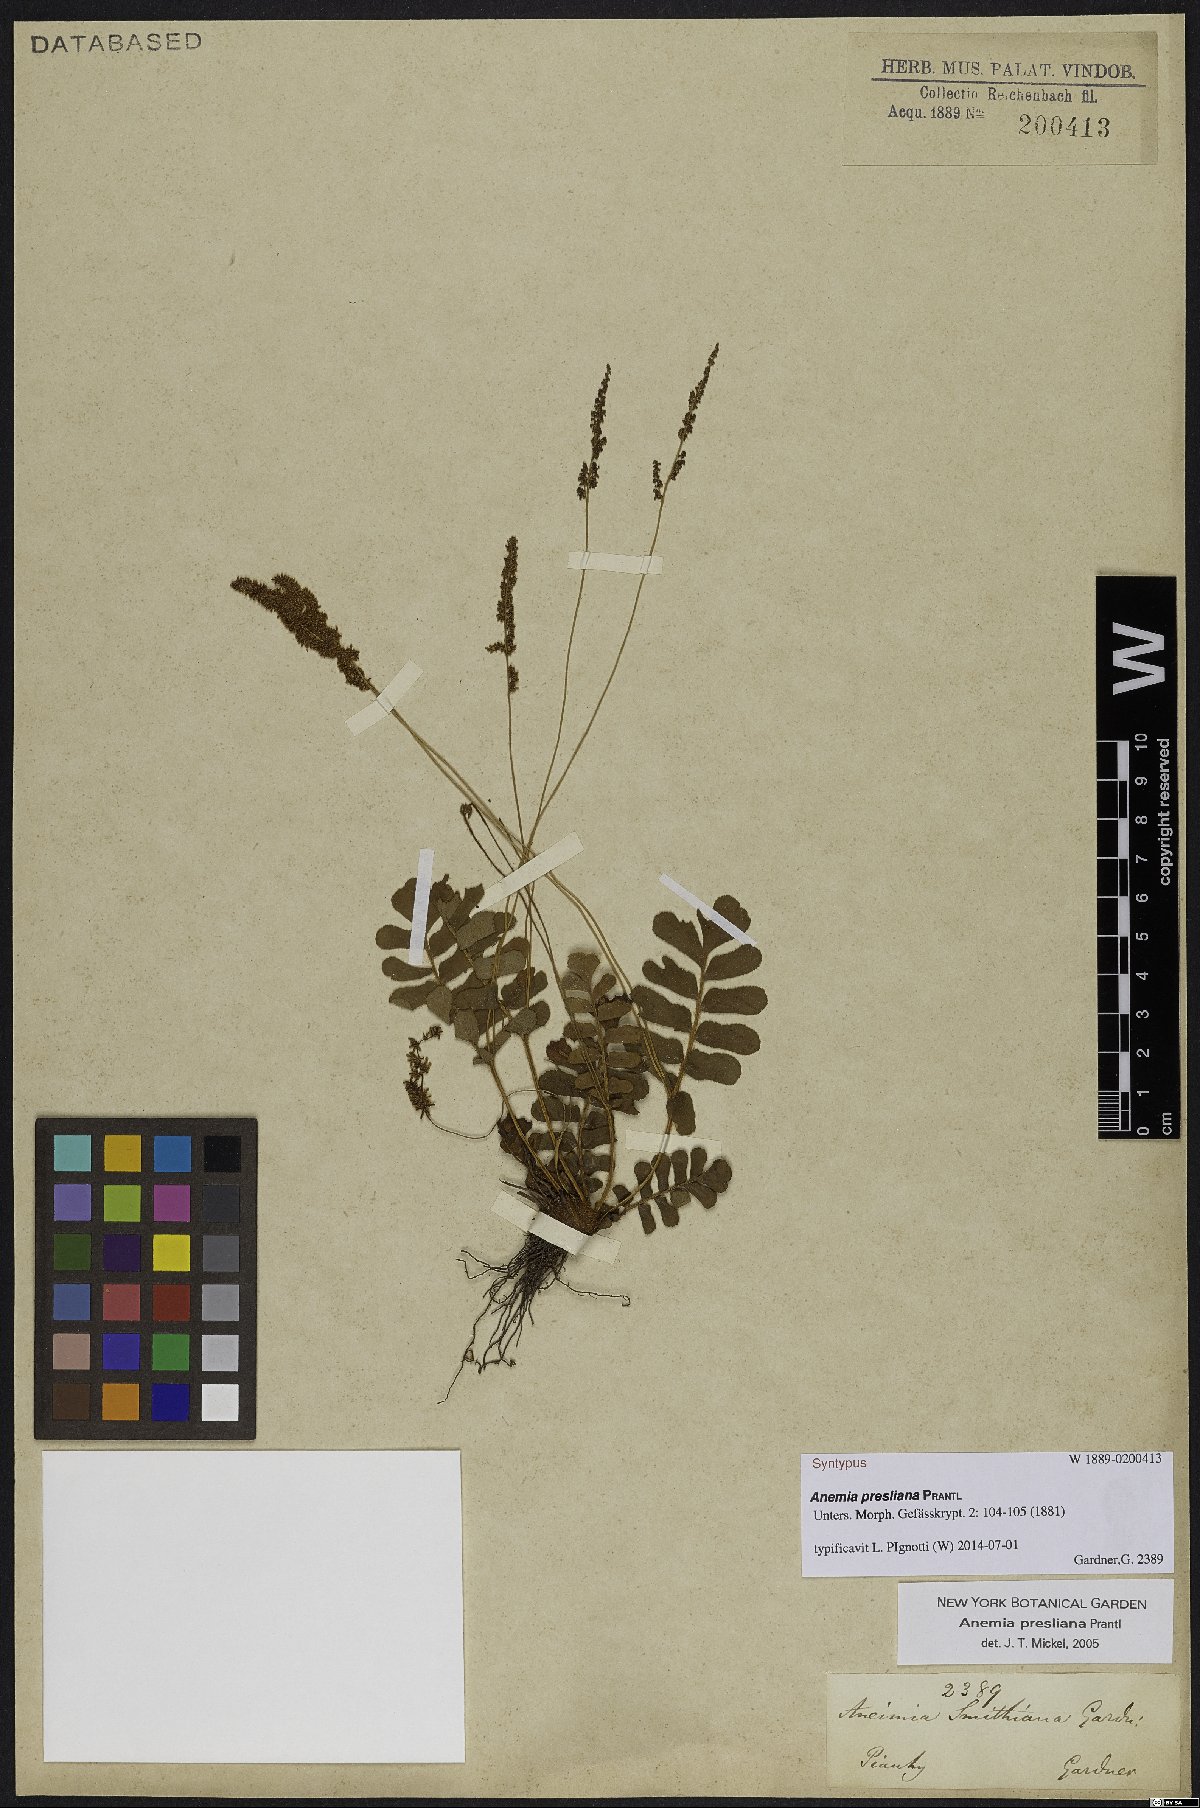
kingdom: Plantae
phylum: Tracheophyta
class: Polypodiopsida
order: Schizaeales
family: Anemiaceae
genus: Anemia
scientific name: Anemia presliana
